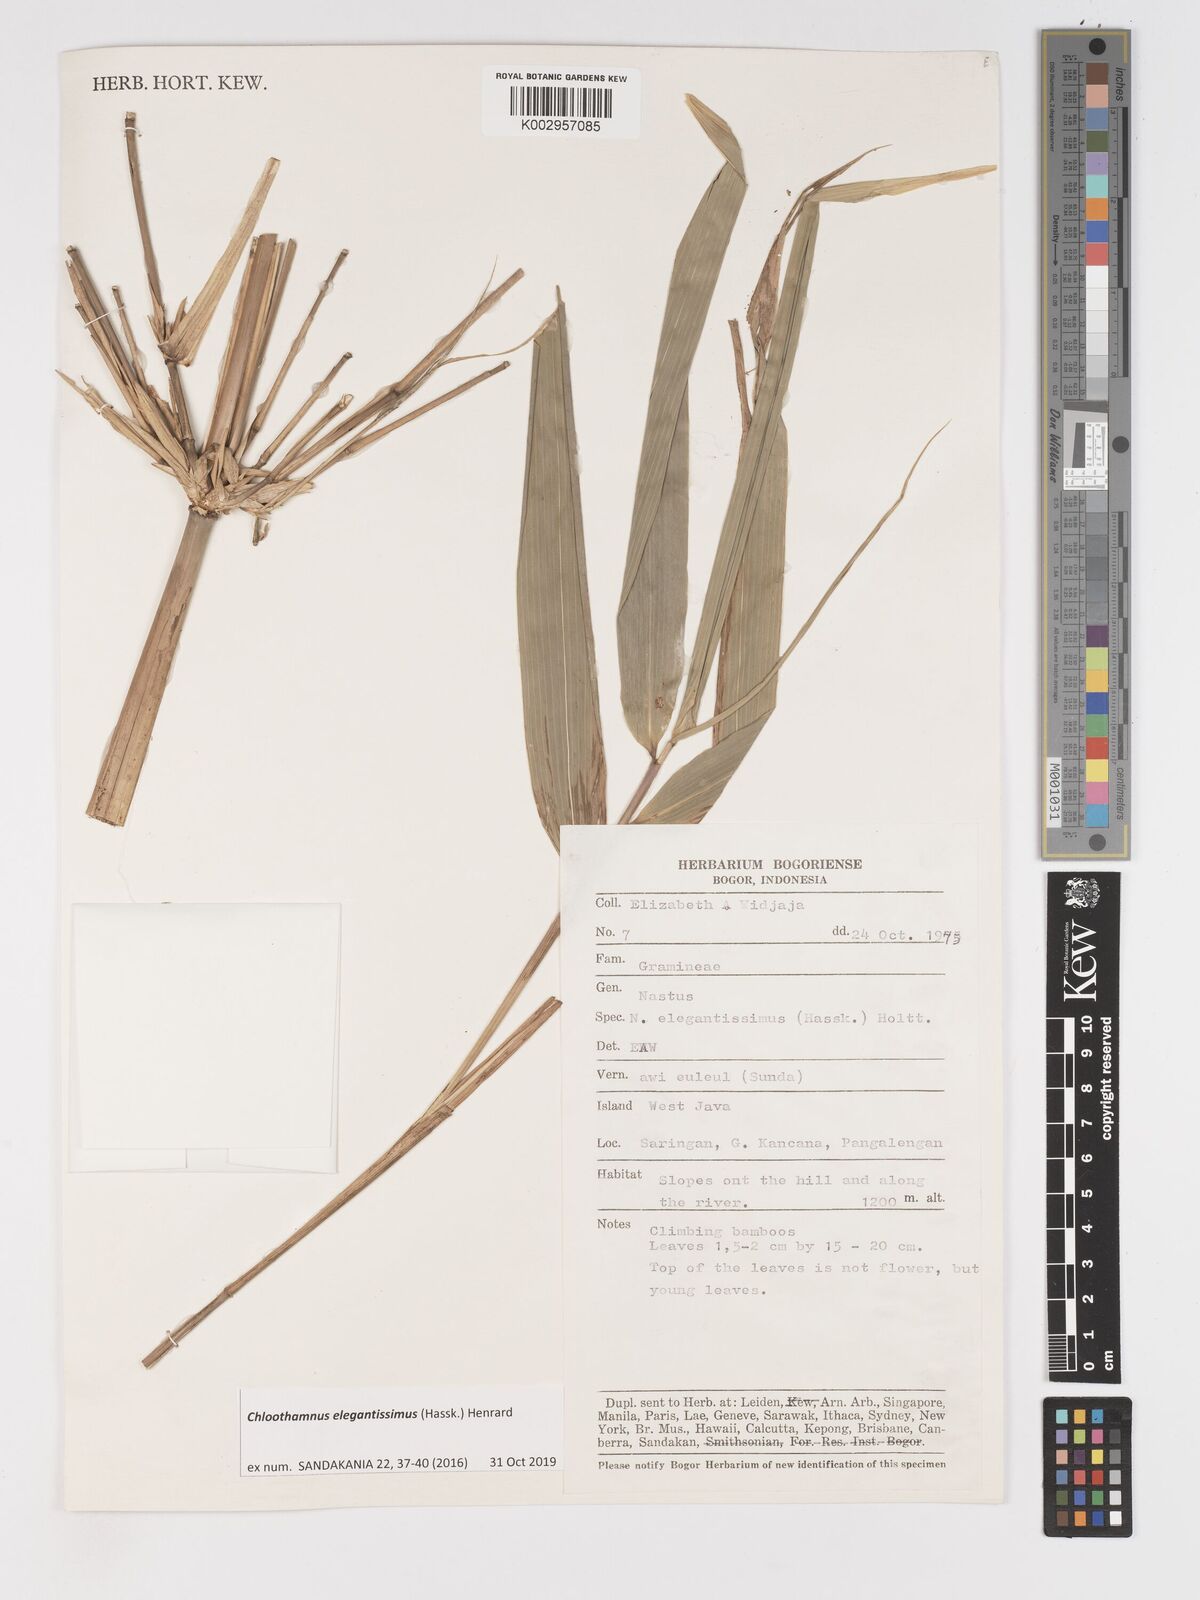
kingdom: Plantae
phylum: Tracheophyta
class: Liliopsida
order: Poales
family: Poaceae
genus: Chloothamnus
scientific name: Chloothamnus elegantissimus
